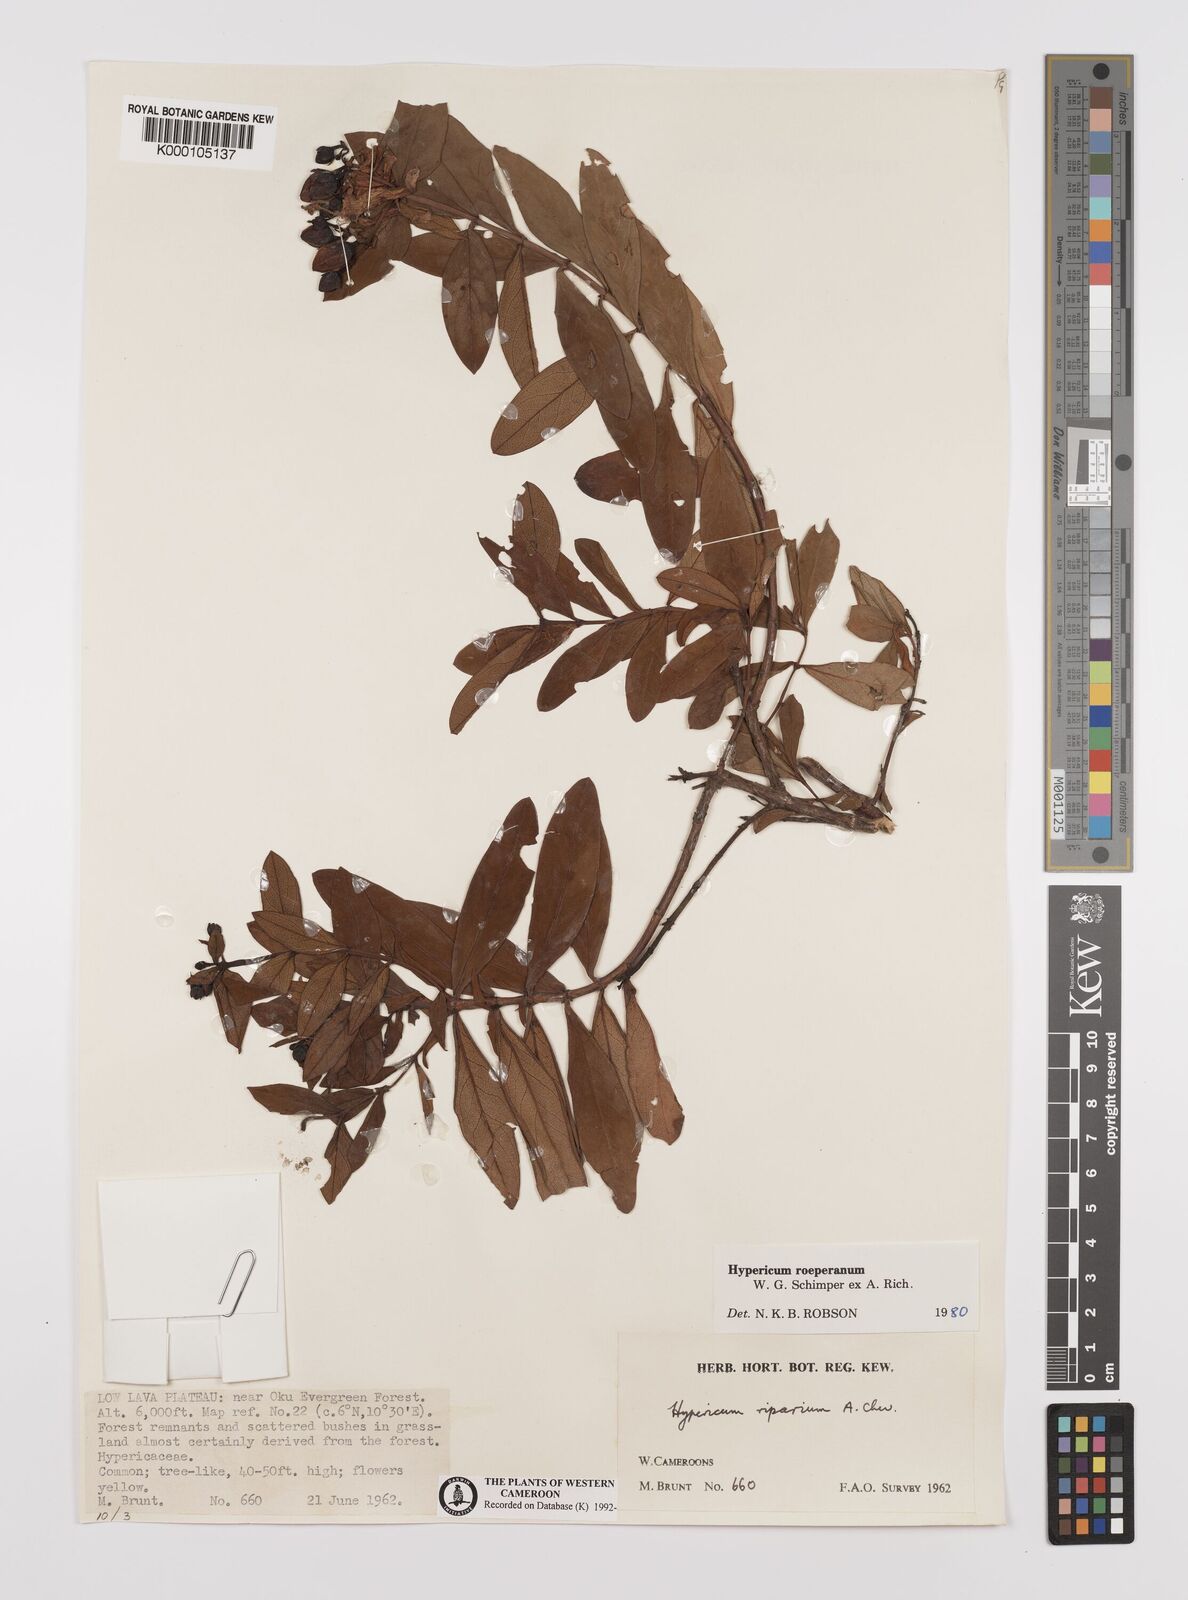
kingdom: Plantae
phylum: Tracheophyta
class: Magnoliopsida
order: Malpighiales
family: Hypericaceae
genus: Hypericum
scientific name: Hypericum
